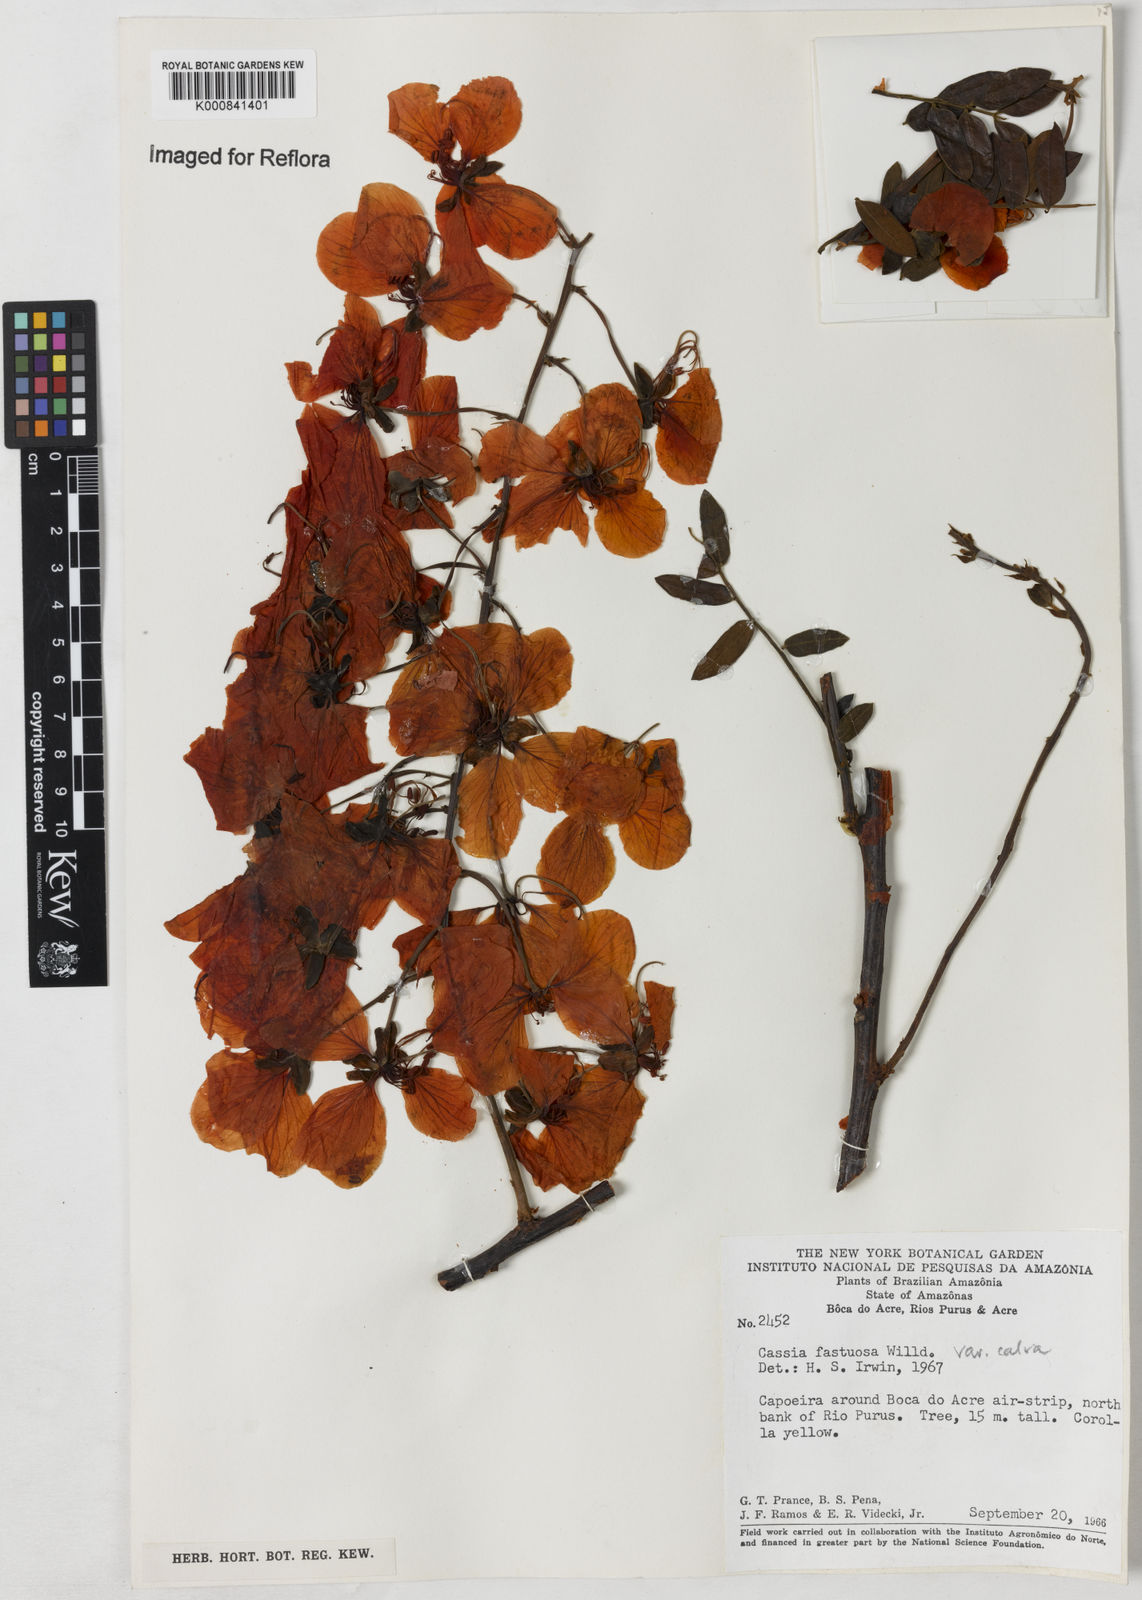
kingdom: Plantae
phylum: Tracheophyta
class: Magnoliopsida
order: Fabales
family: Fabaceae
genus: Cassia
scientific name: Cassia fastuosa
